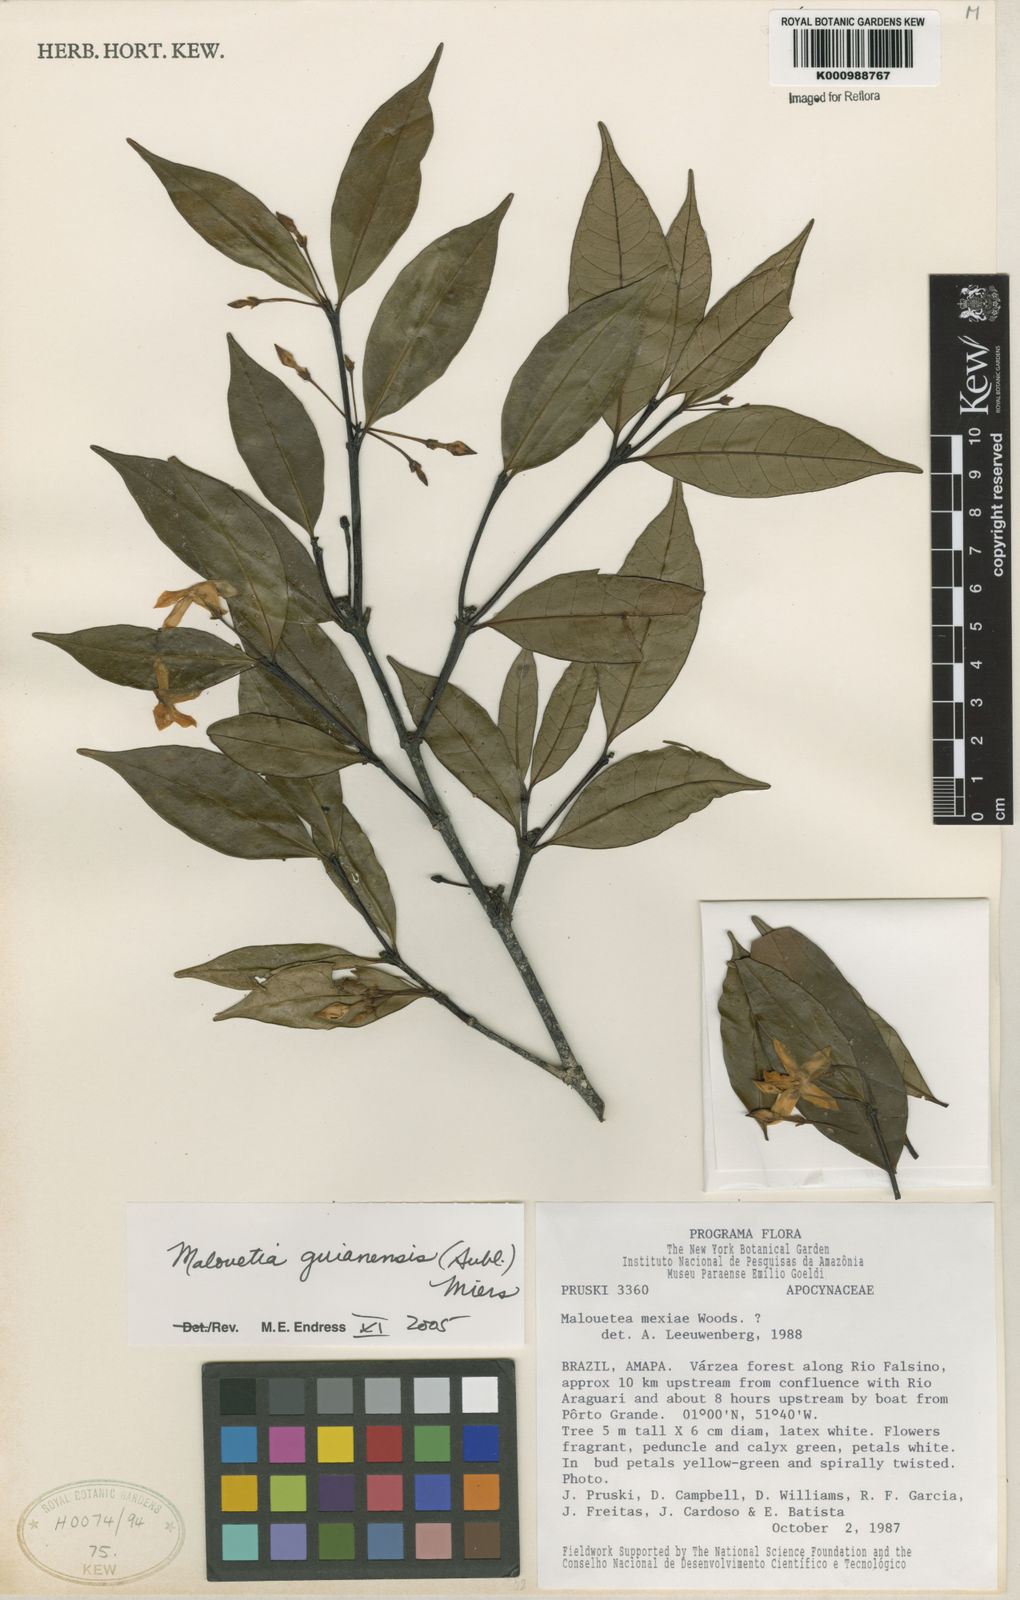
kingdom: Plantae
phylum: Tracheophyta
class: Magnoliopsida
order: Gentianales
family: Apocynaceae
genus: Malouetia
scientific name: Malouetia tamaquarina
